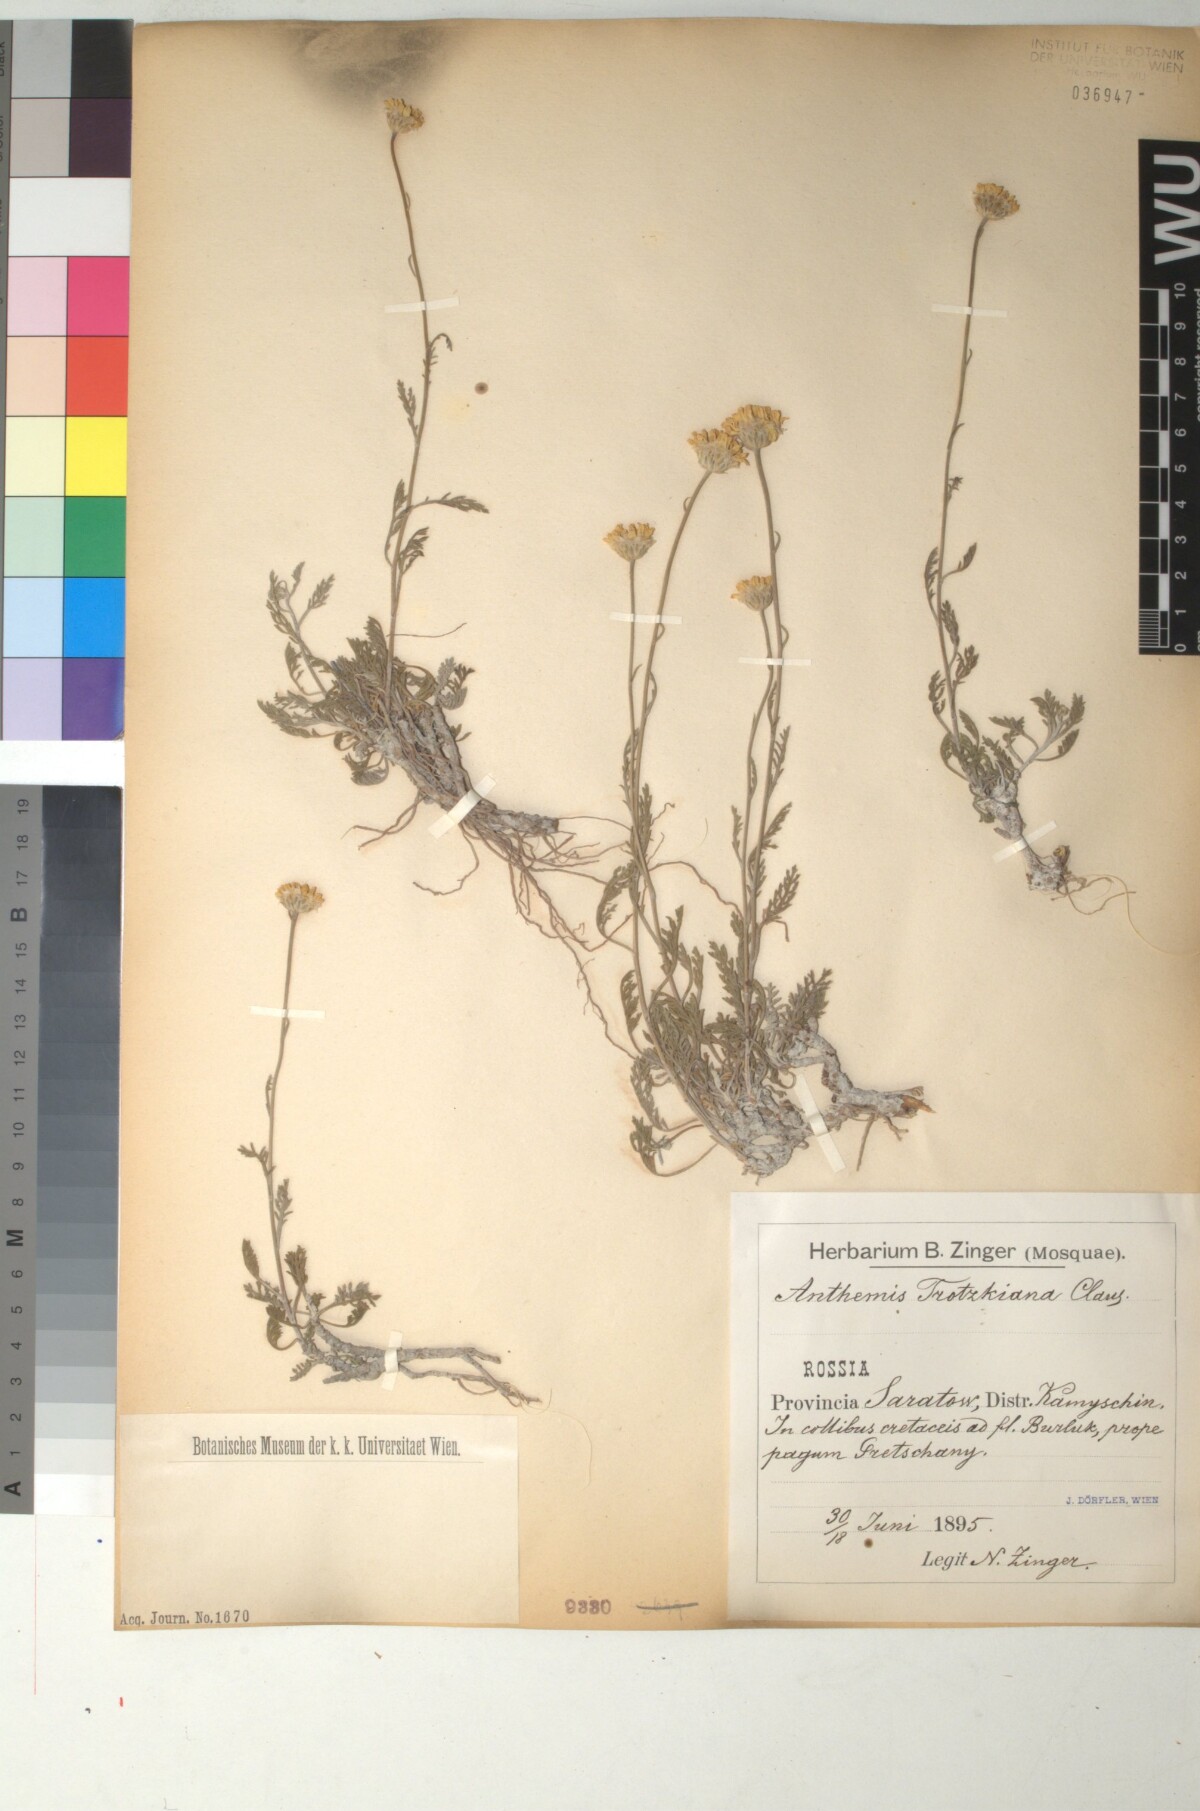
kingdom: Plantae
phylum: Tracheophyta
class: Magnoliopsida
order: Asterales
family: Asteraceae
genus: Archanthemis
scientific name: Archanthemis trotzkiana
